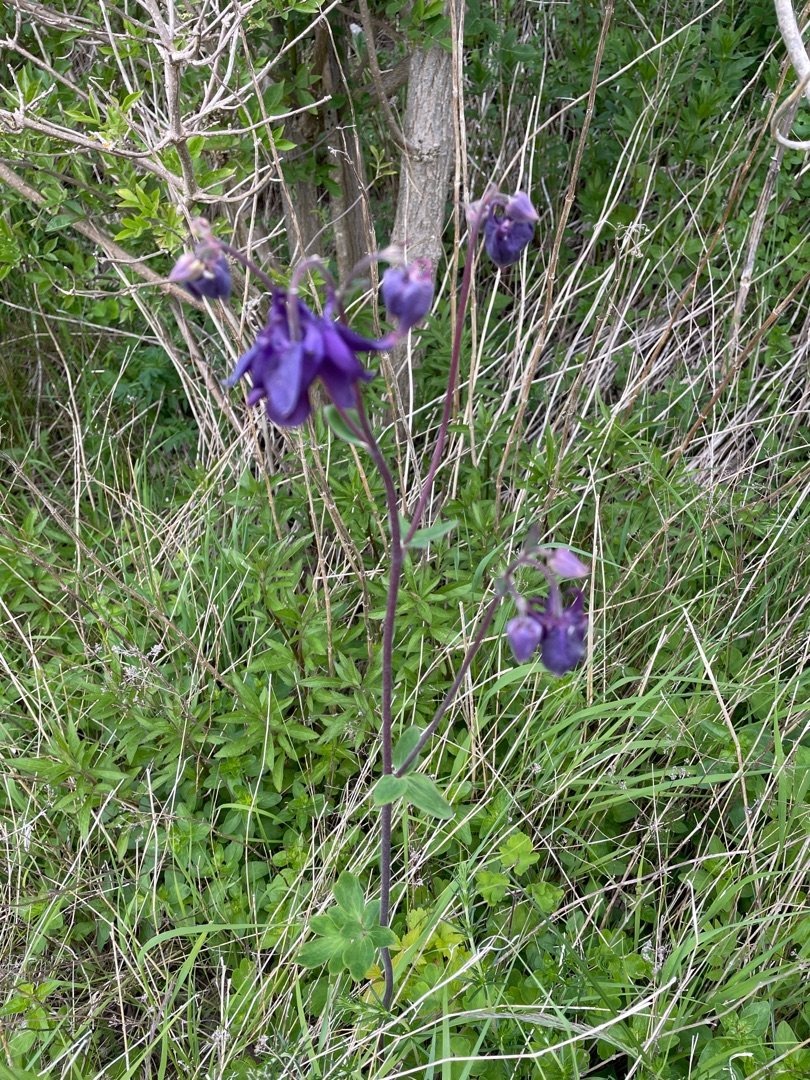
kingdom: Plantae
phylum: Tracheophyta
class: Magnoliopsida
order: Ranunculales
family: Ranunculaceae
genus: Aquilegia
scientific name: Aquilegia vulgaris
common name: Akeleje
